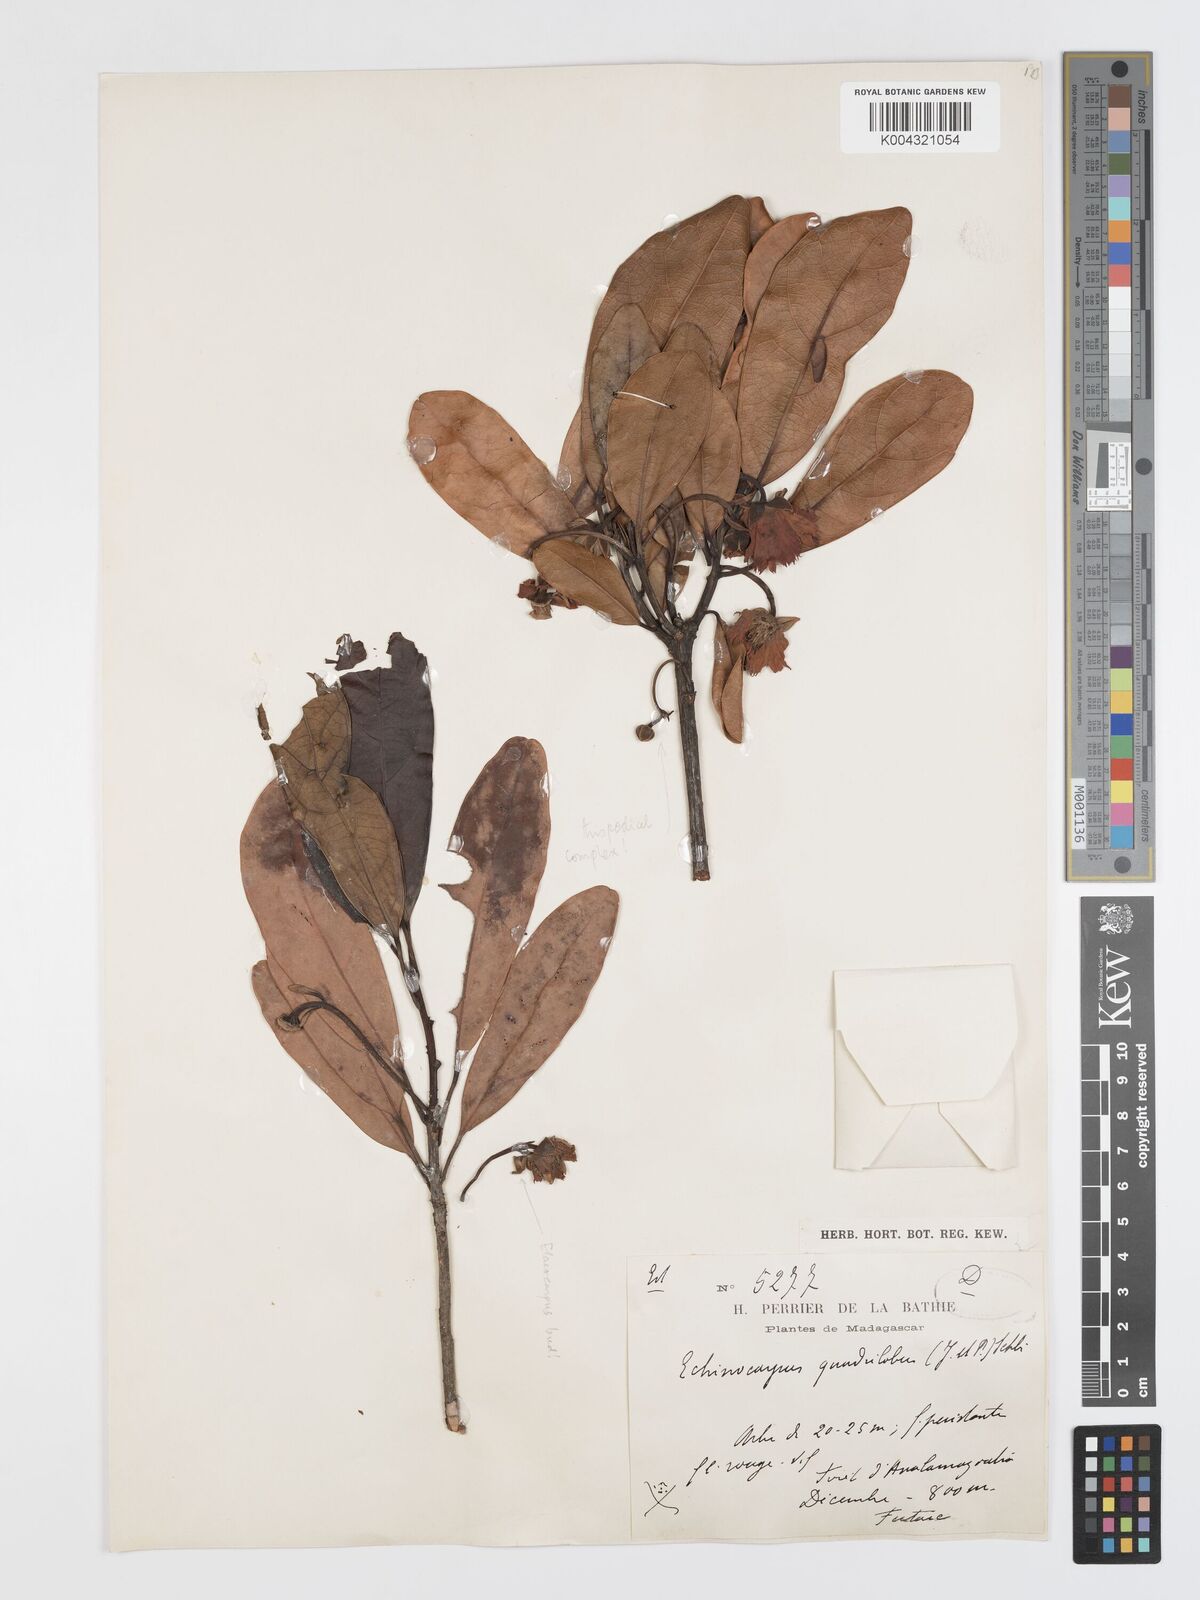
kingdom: Plantae
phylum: Tracheophyta
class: Magnoliopsida
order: Oxalidales
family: Elaeocarpaceae
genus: Sloanea
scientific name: Sloanea rhodantha
